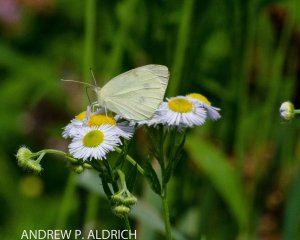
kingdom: Animalia
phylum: Arthropoda
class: Insecta
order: Lepidoptera
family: Pieridae
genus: Pieris
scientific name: Pieris rapae
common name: Cabbage White
